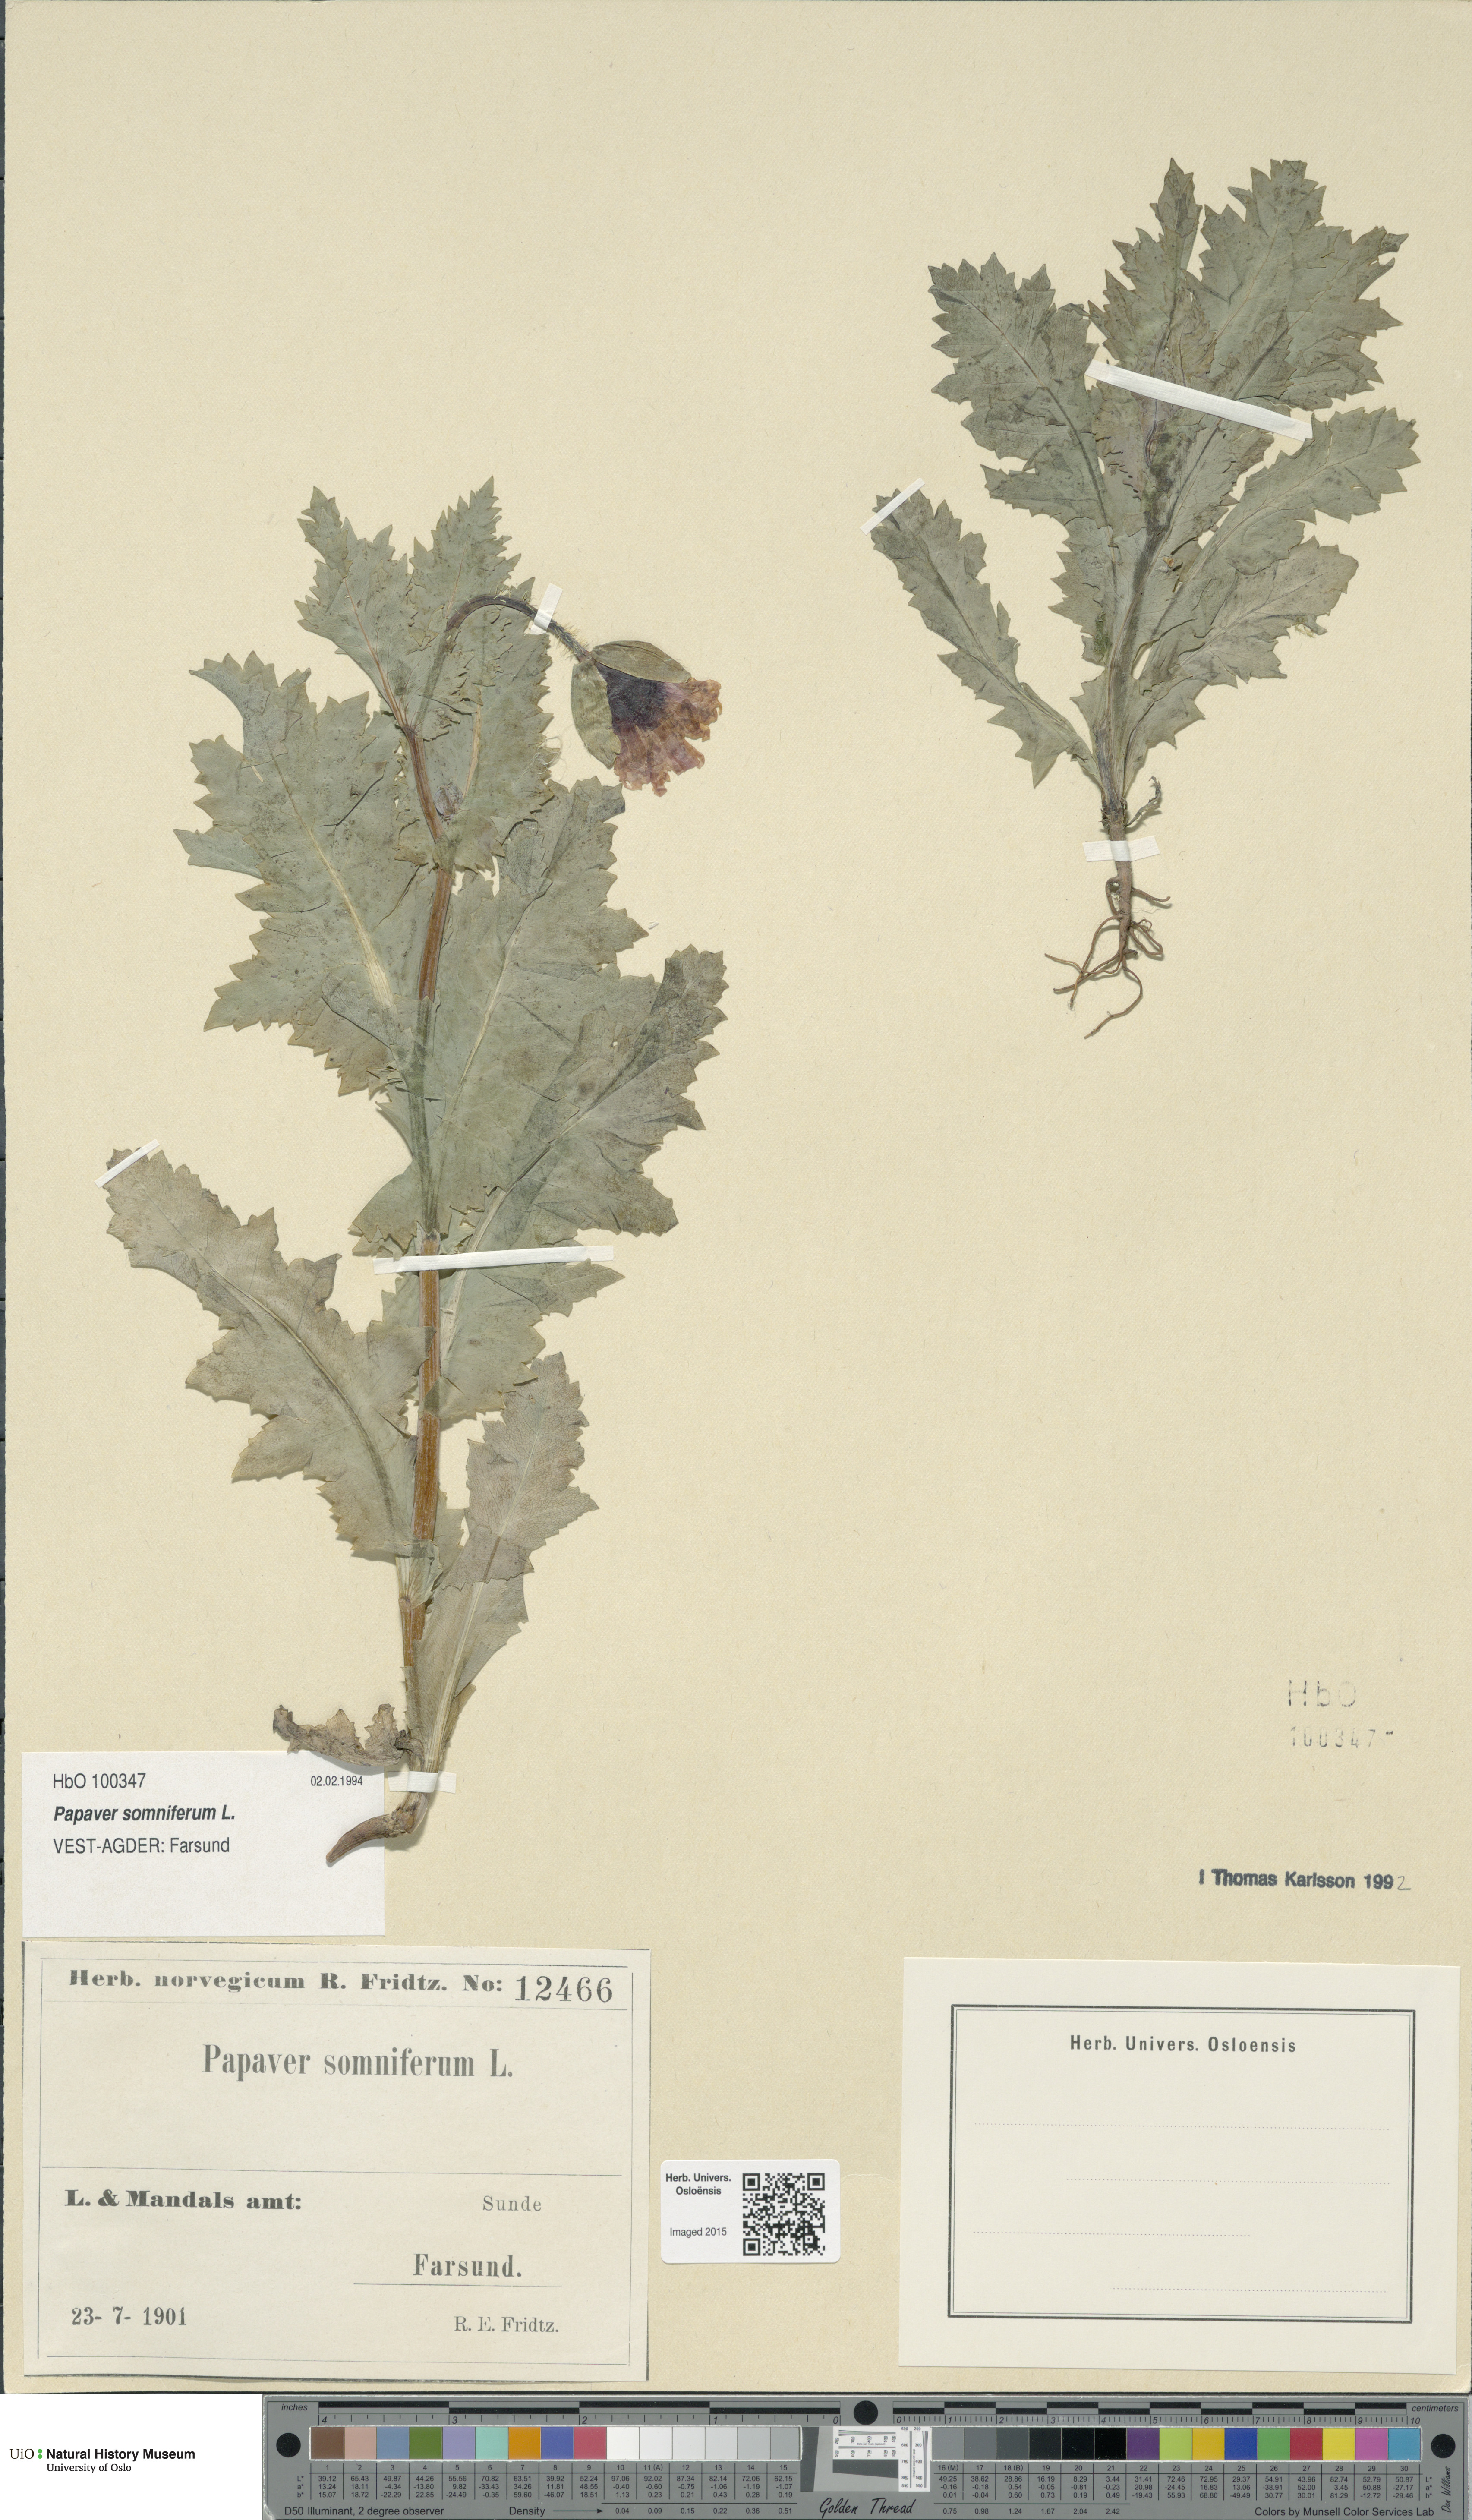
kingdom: Plantae
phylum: Tracheophyta
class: Magnoliopsida
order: Ranunculales
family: Papaveraceae
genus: Papaver
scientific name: Papaver somniferum
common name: Opium poppy
